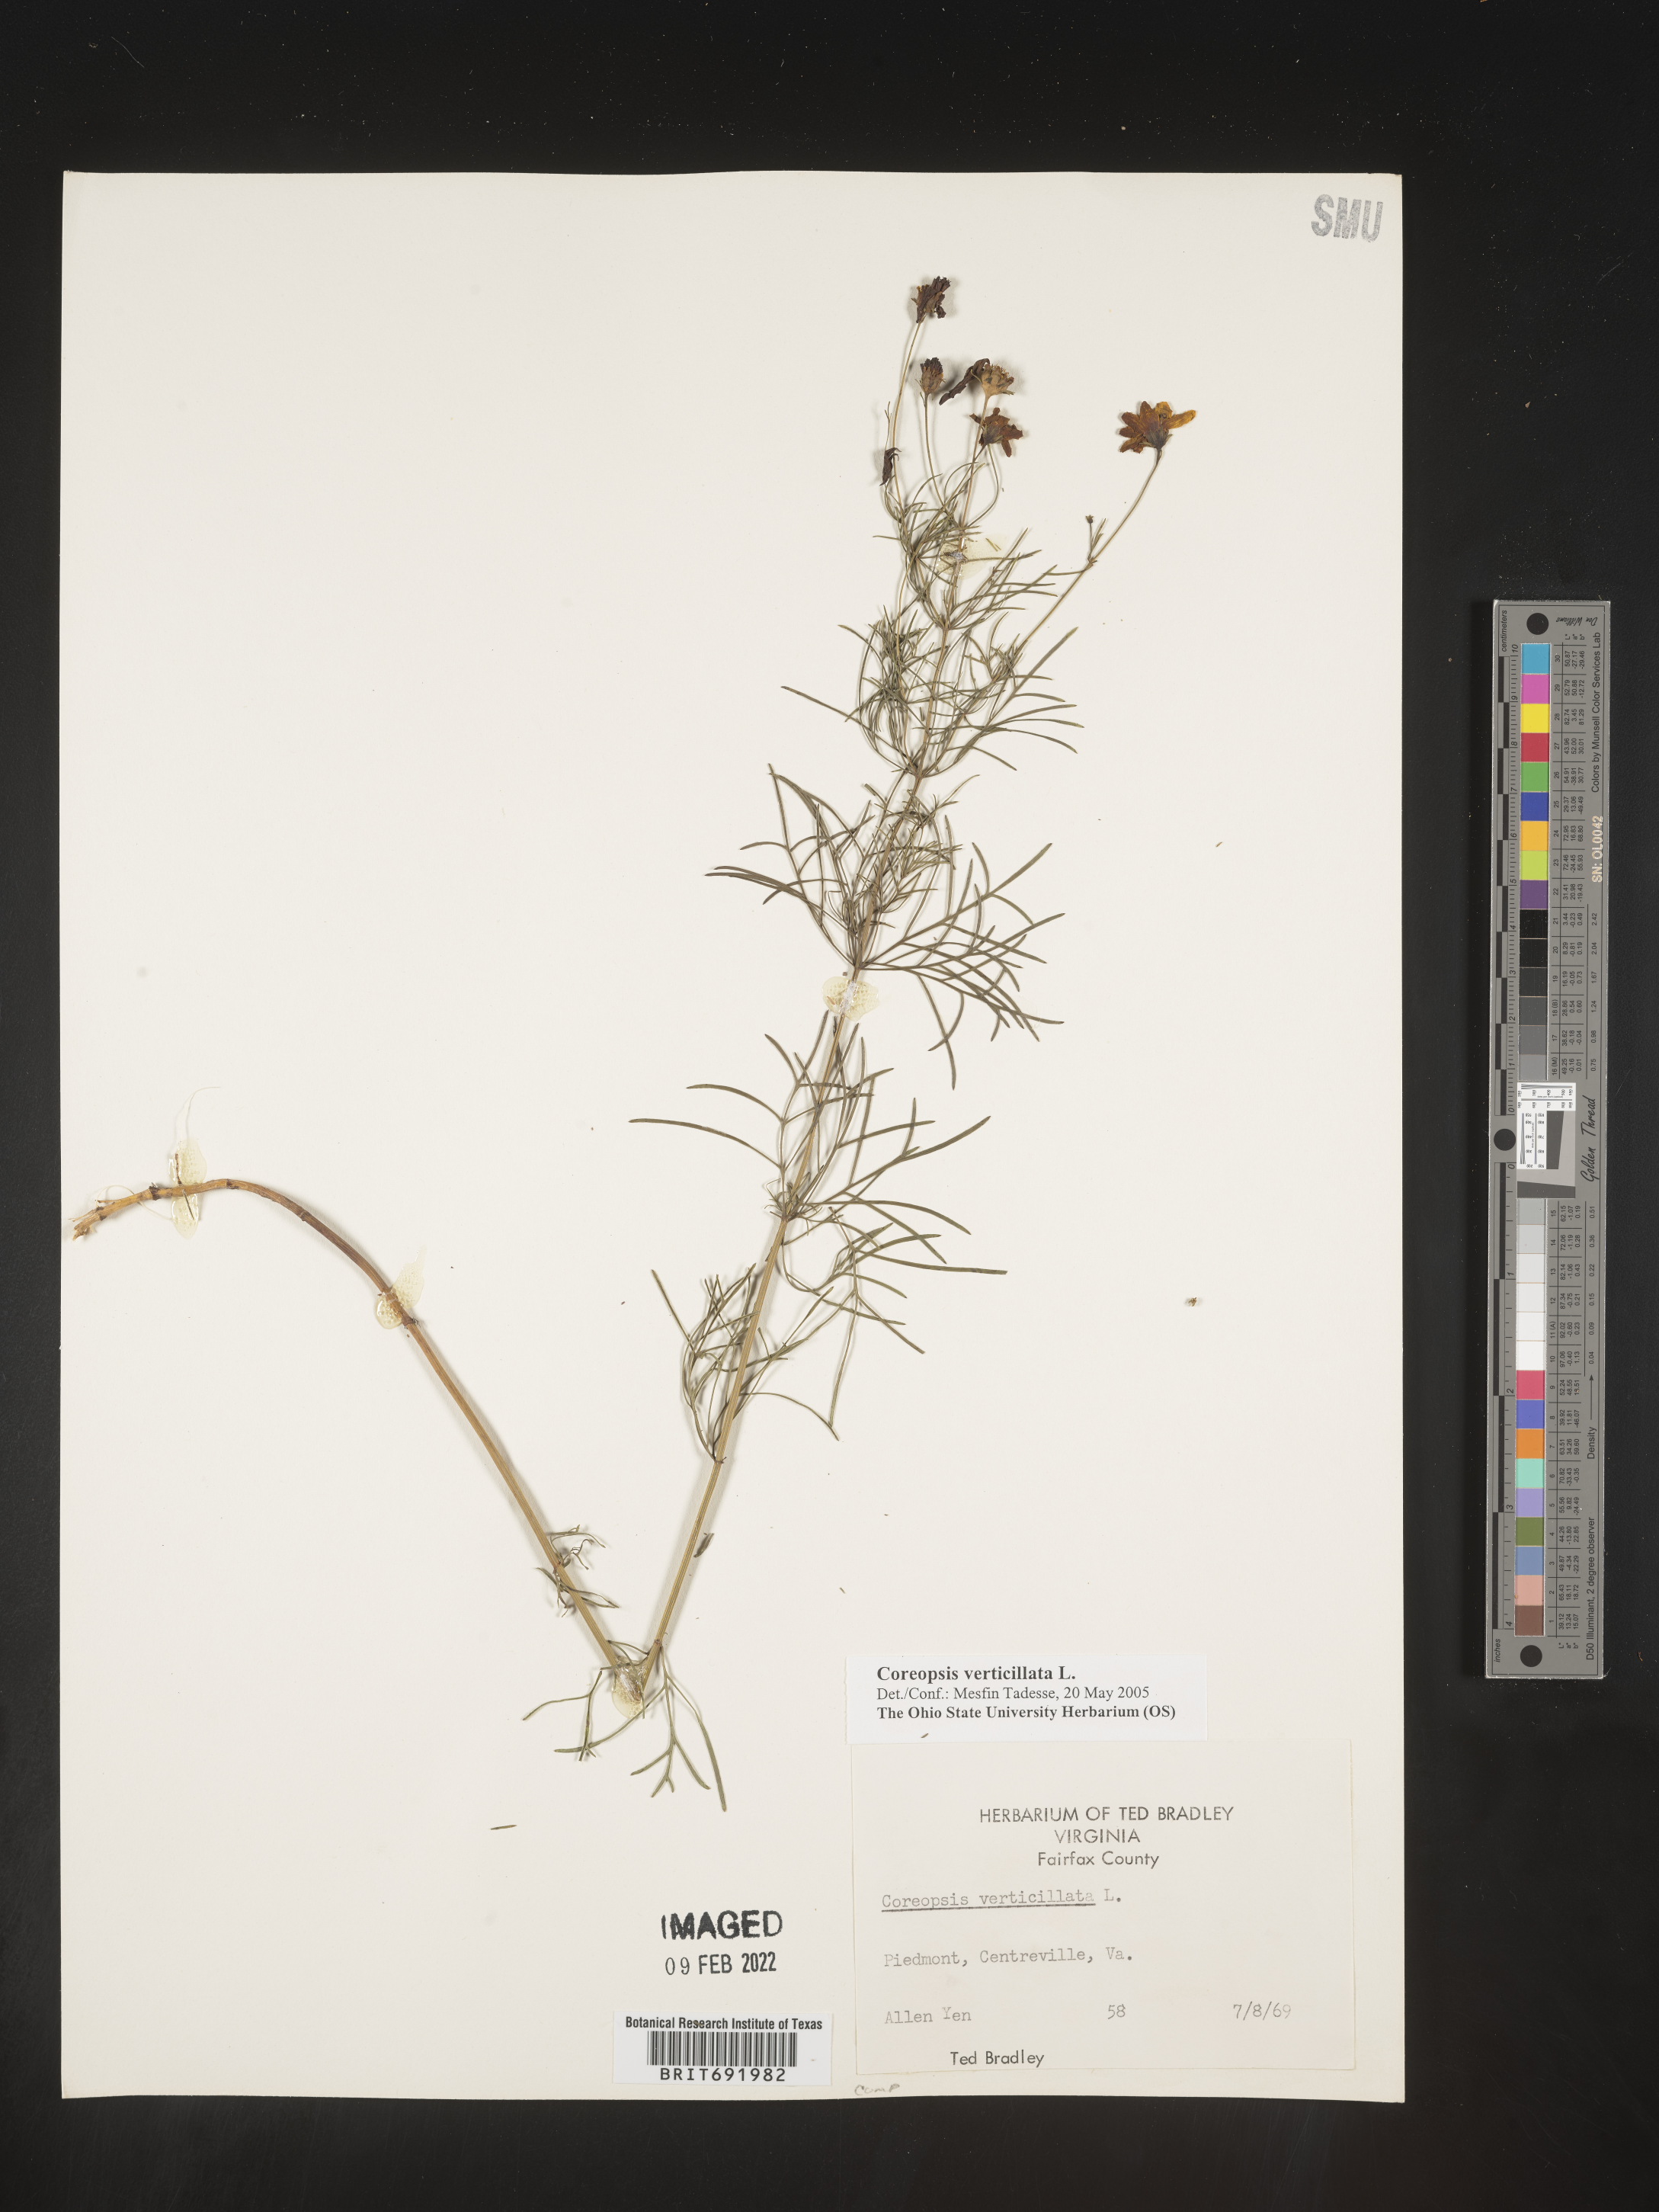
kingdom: Plantae
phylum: Tracheophyta
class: Magnoliopsida
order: Asterales
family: Asteraceae
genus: Coreopsis
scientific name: Coreopsis verticillata
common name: Whorled tickseed
